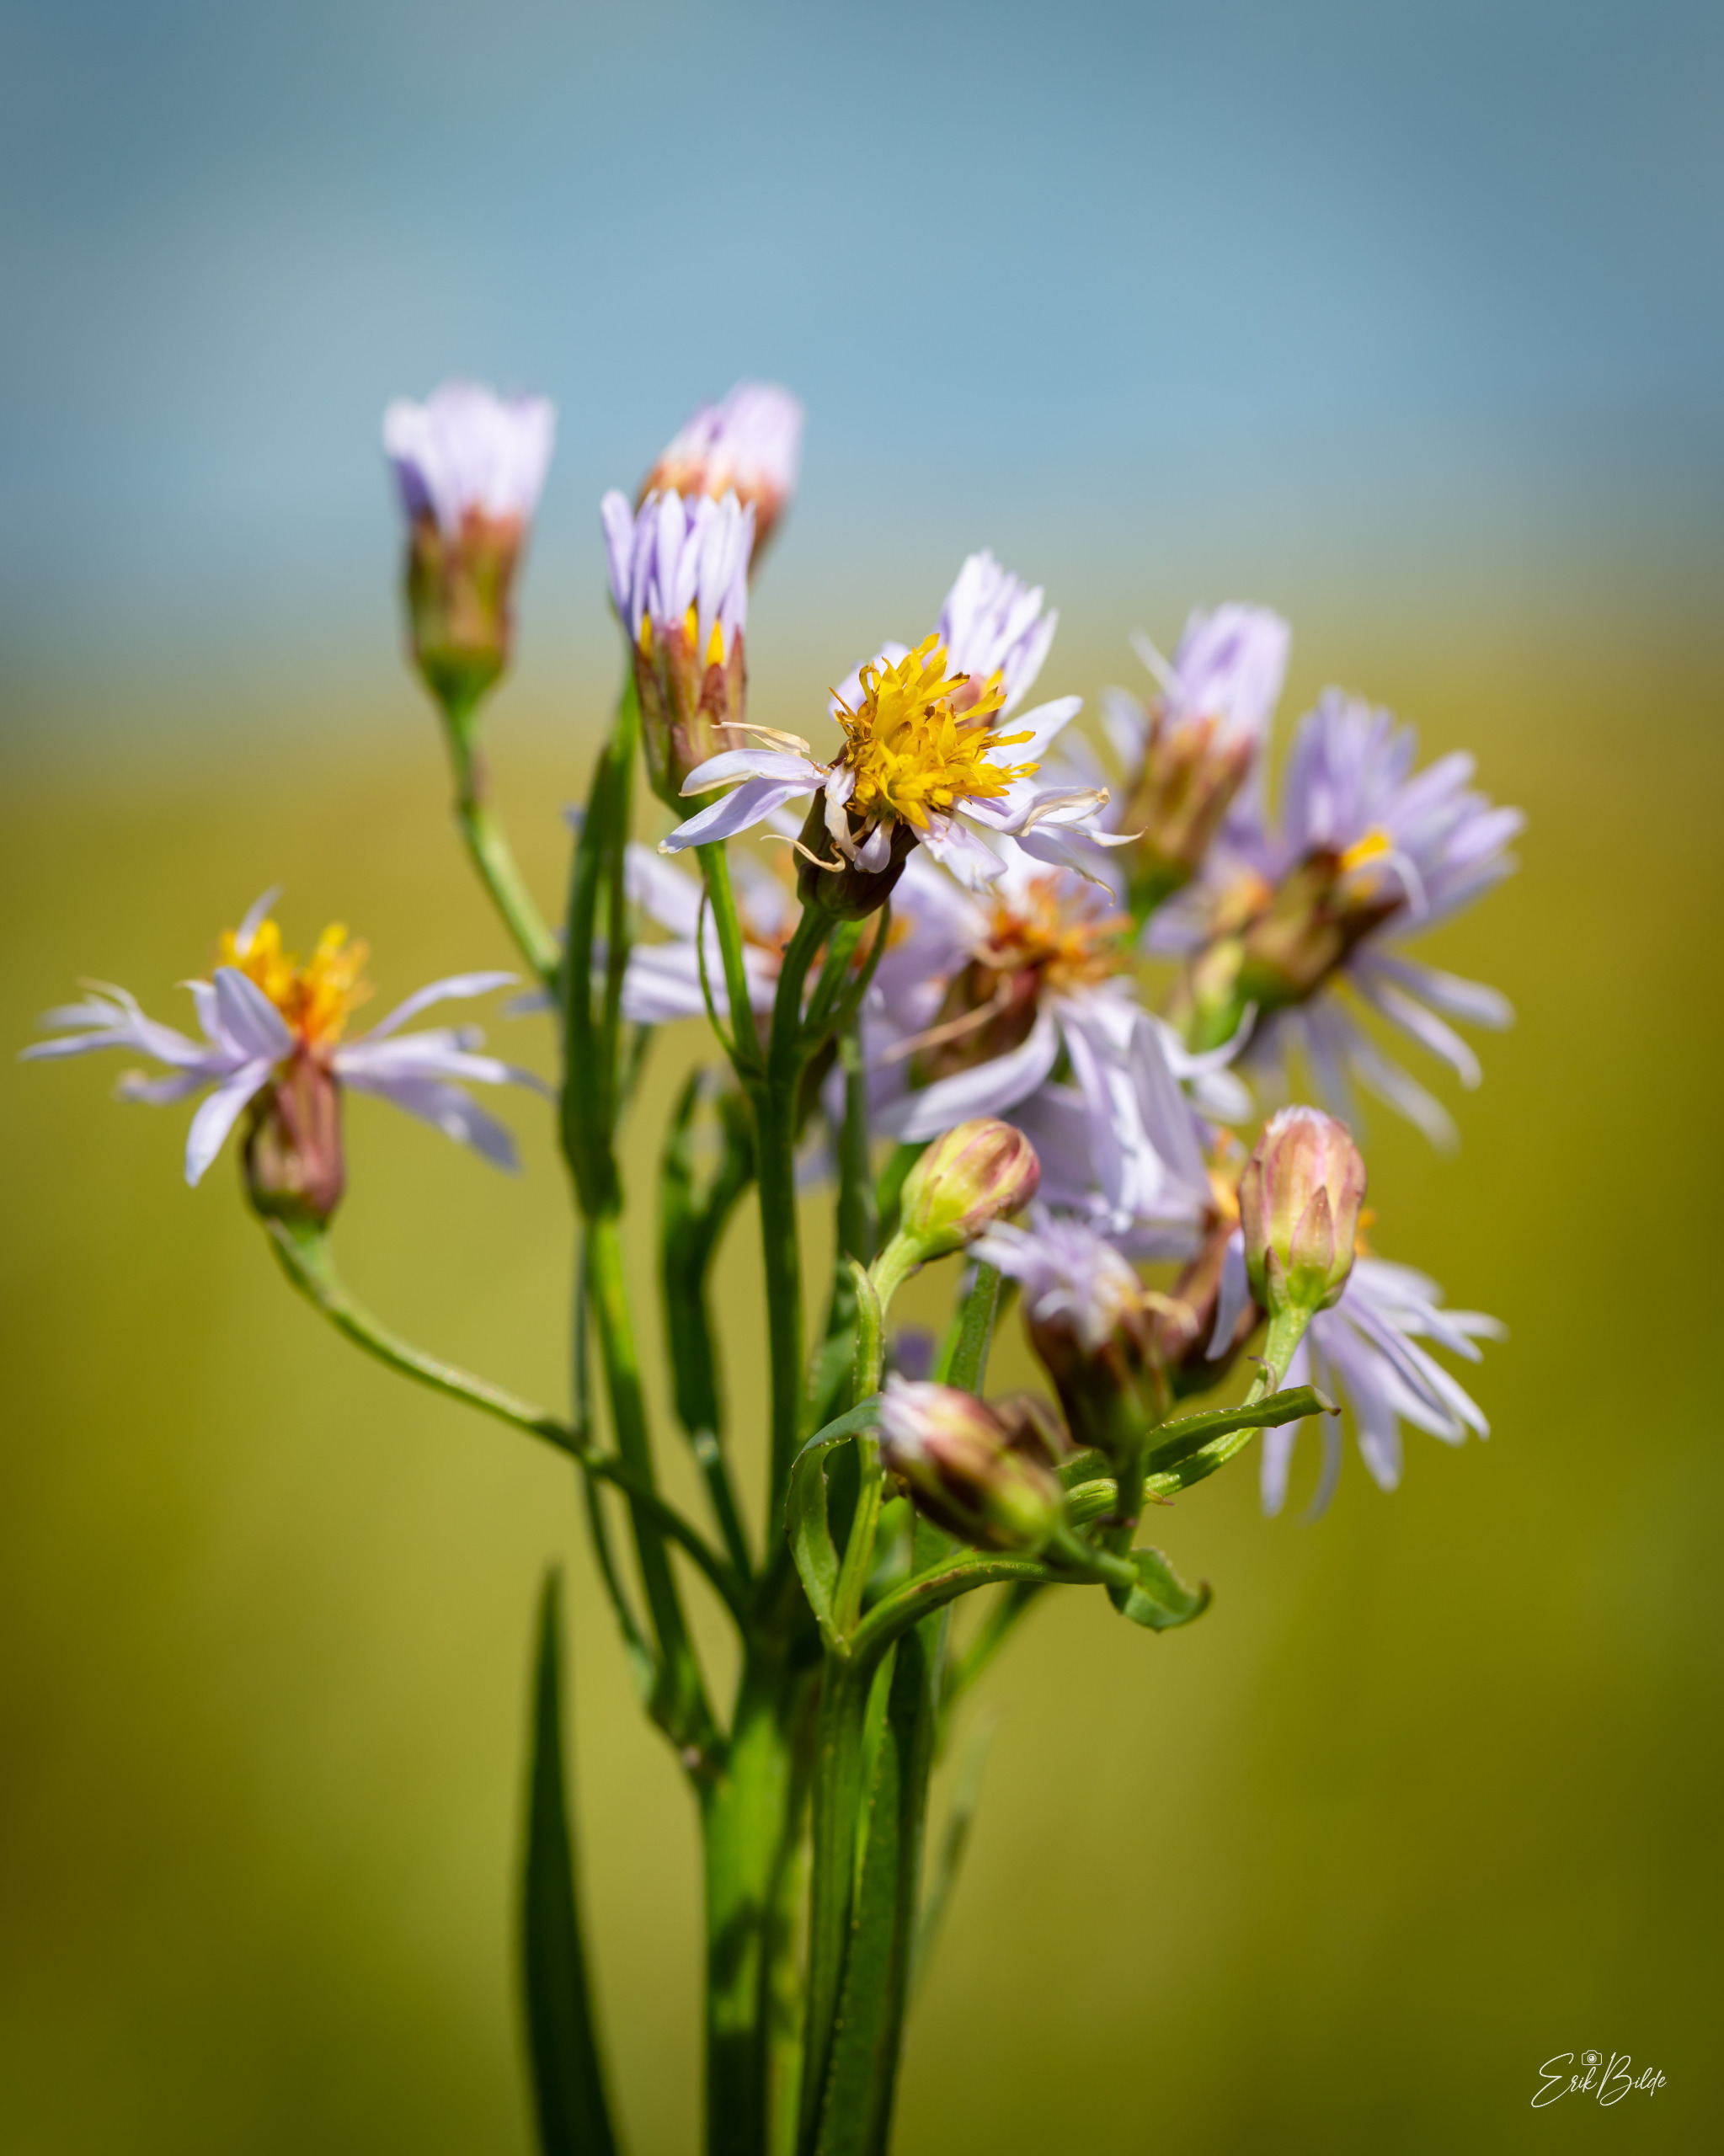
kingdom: Plantae
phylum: Tracheophyta
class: Magnoliopsida
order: Asterales
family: Asteraceae
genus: Tripolium
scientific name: Tripolium pannonicum
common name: Strandasters
